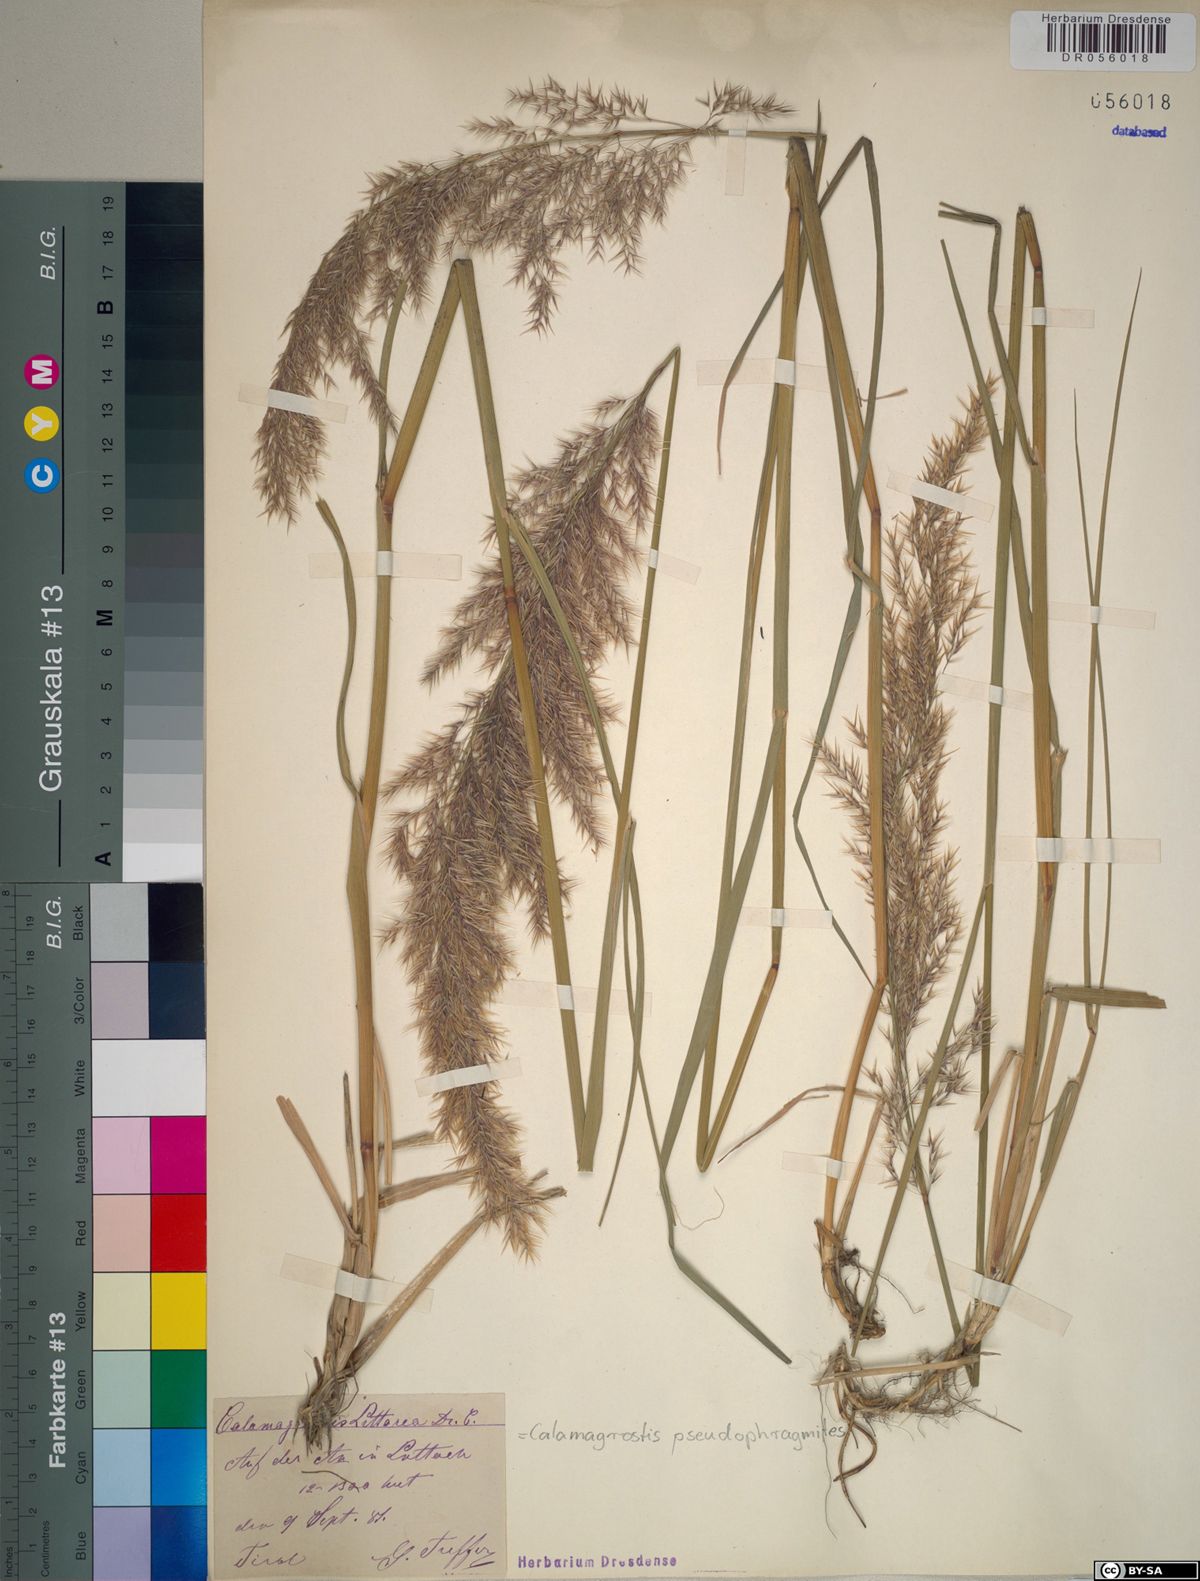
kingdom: Plantae
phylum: Tracheophyta
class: Liliopsida
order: Poales
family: Poaceae
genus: Calamagrostis
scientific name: Calamagrostis pseudophragmites
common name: Coastal small-reed
